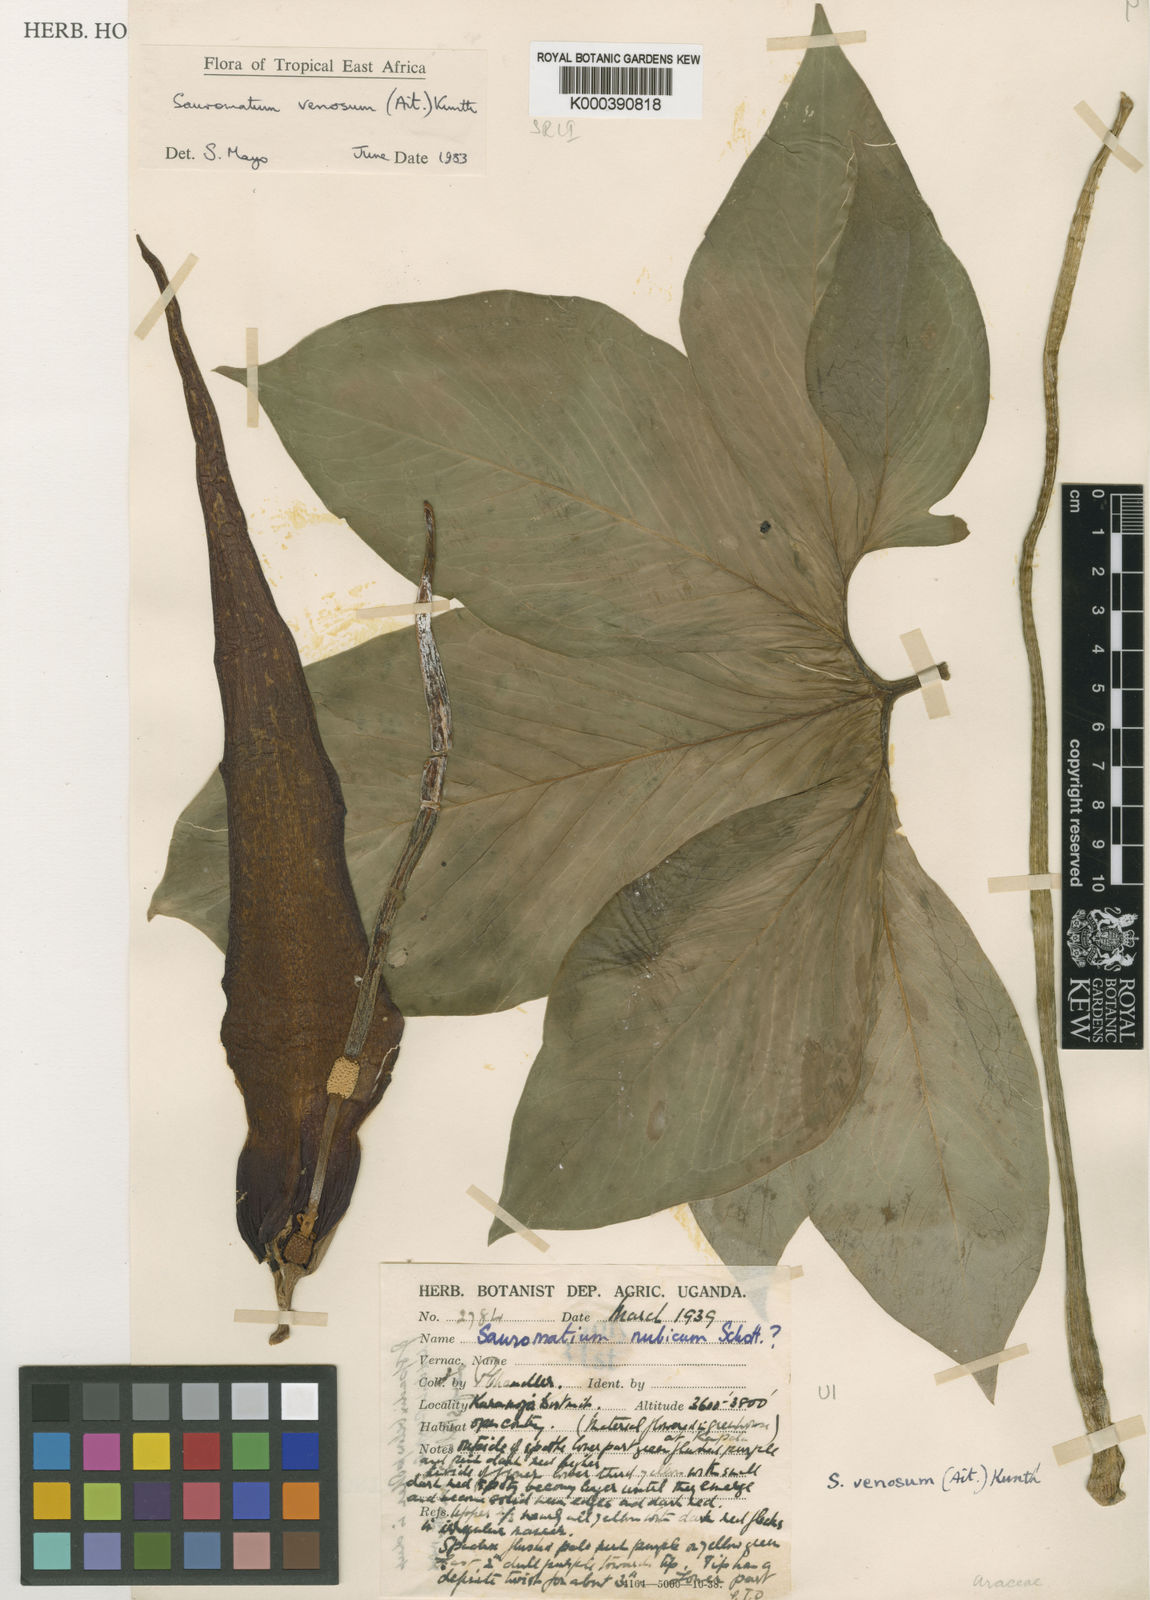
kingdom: Plantae
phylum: Tracheophyta
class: Liliopsida
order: Alismatales
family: Araceae
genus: Sauromatum
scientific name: Sauromatum venosum
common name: Voodoo lily
